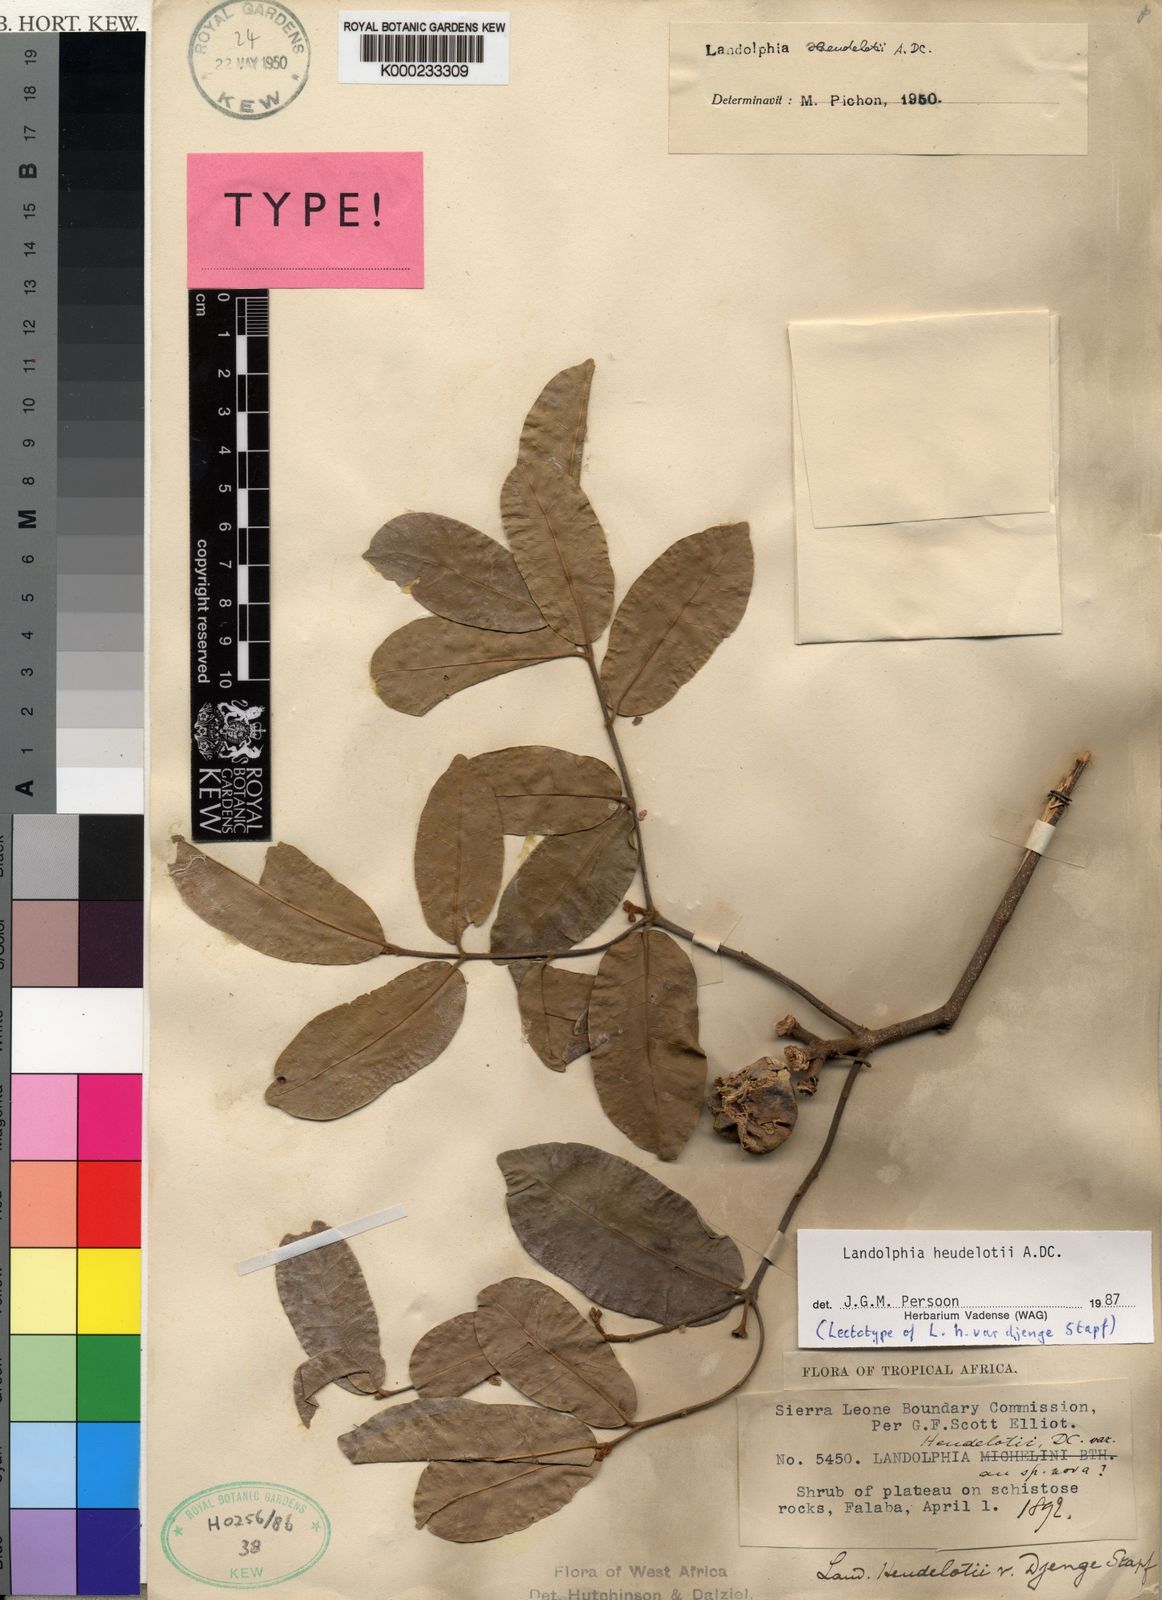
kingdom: Plantae
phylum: Tracheophyta
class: Magnoliopsida
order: Gentianales
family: Apocynaceae
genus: Landolphia
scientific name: Landolphia heudelotii
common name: Landolphia-rubber
